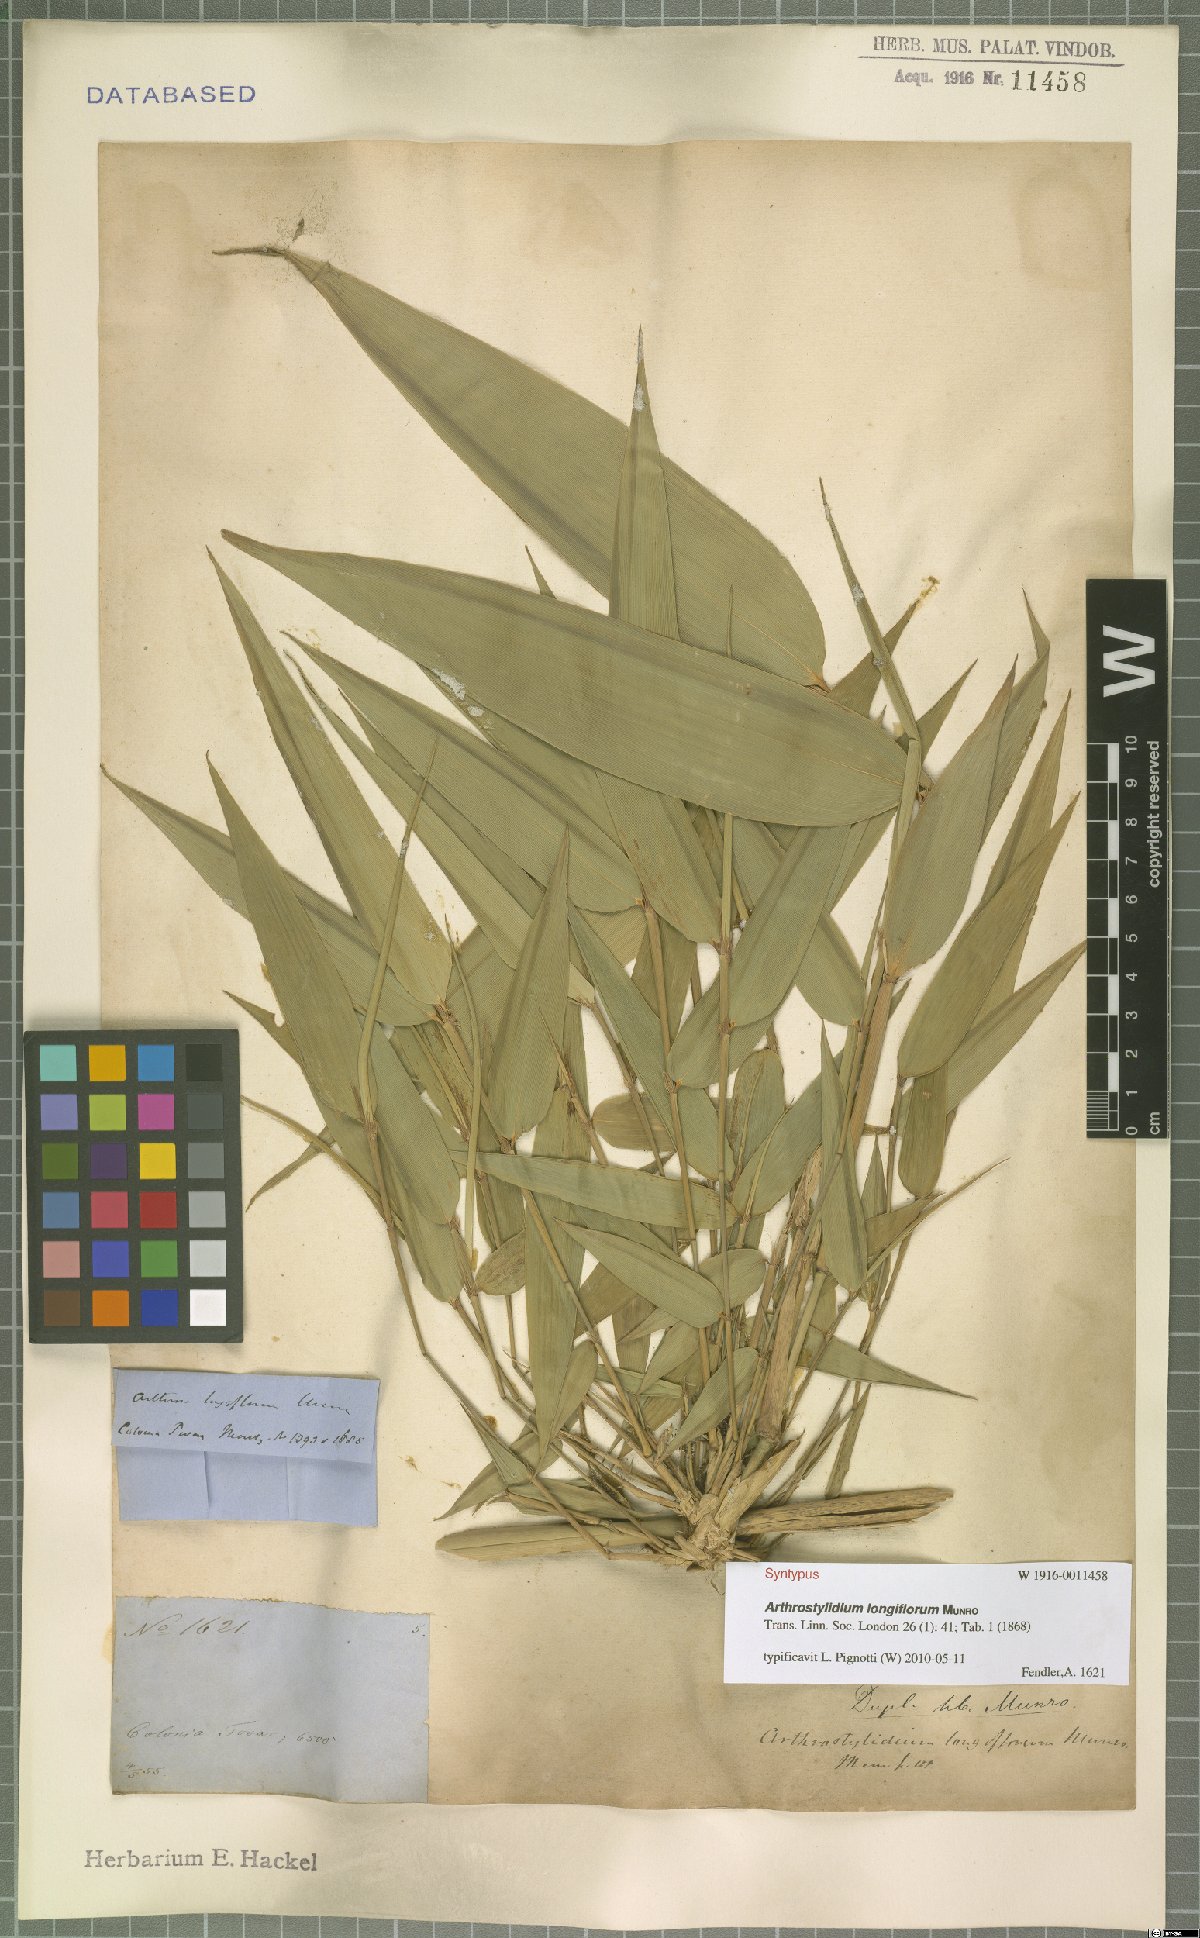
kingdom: Plantae
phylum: Tracheophyta
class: Liliopsida
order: Poales
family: Poaceae
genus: Arthrostylidium
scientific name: Arthrostylidium longiflorum
